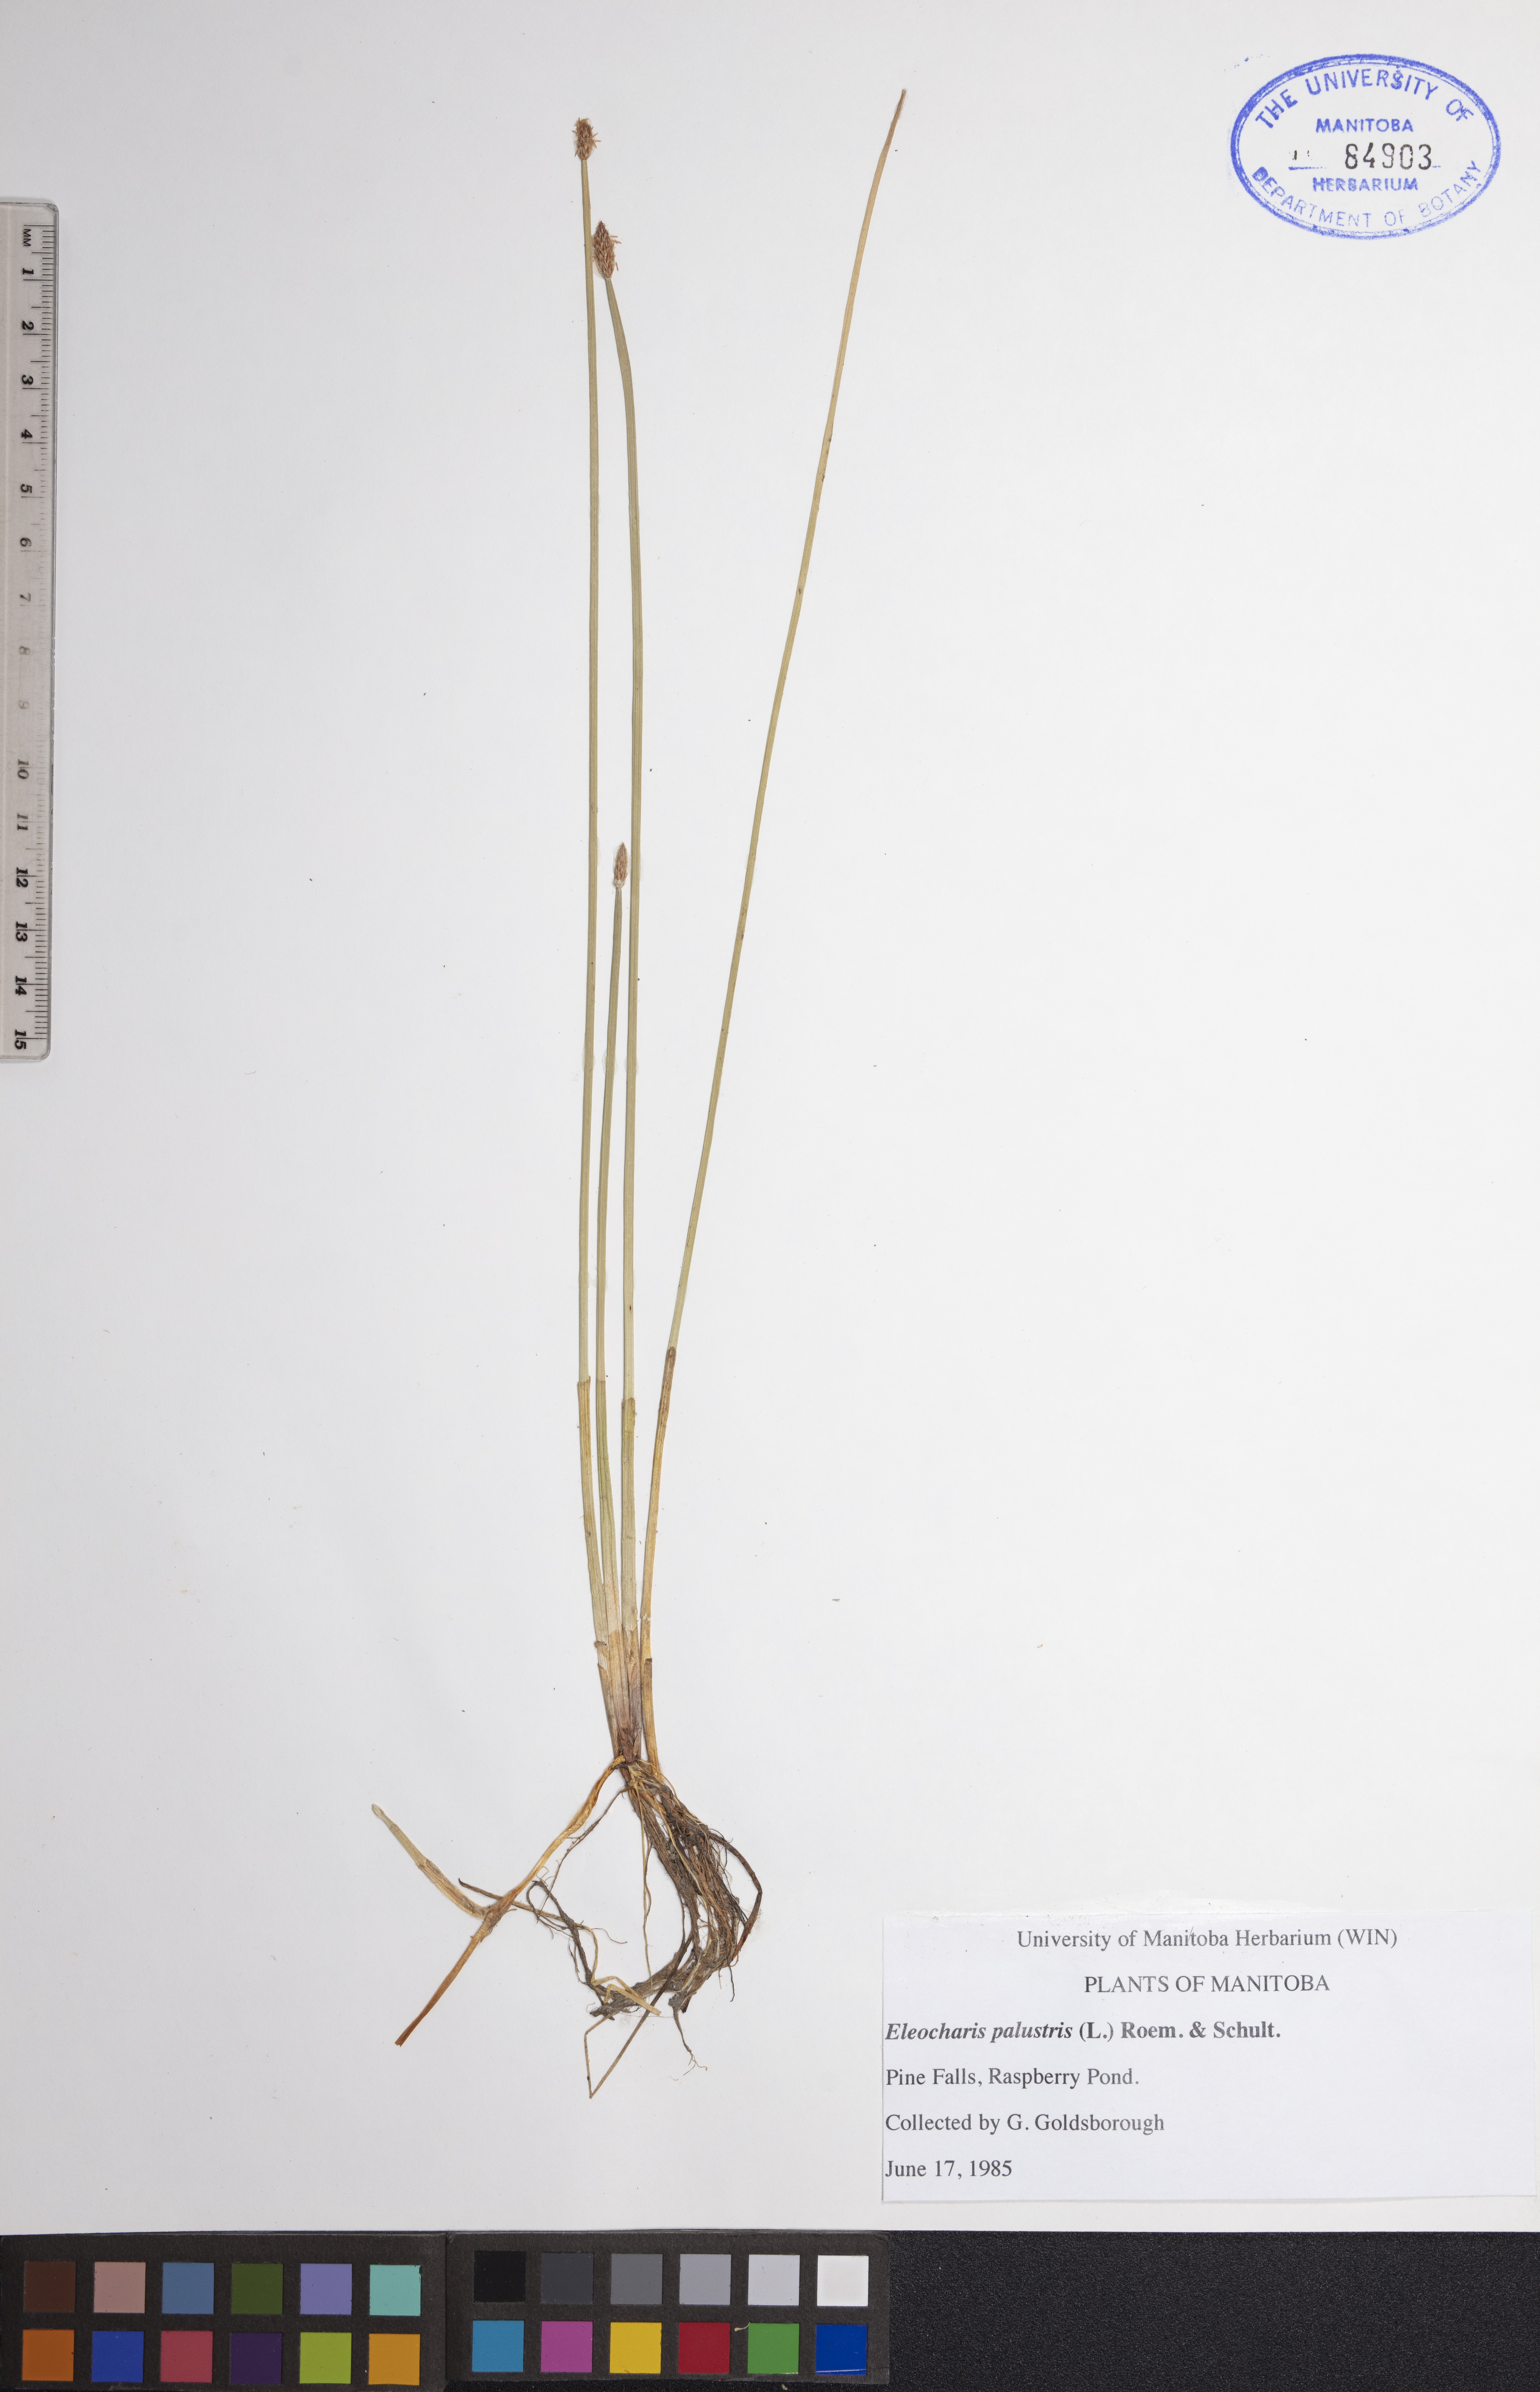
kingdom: Plantae
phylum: Tracheophyta
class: Liliopsida
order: Poales
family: Cyperaceae
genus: Eleocharis
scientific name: Eleocharis palustris
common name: Common spike-rush
